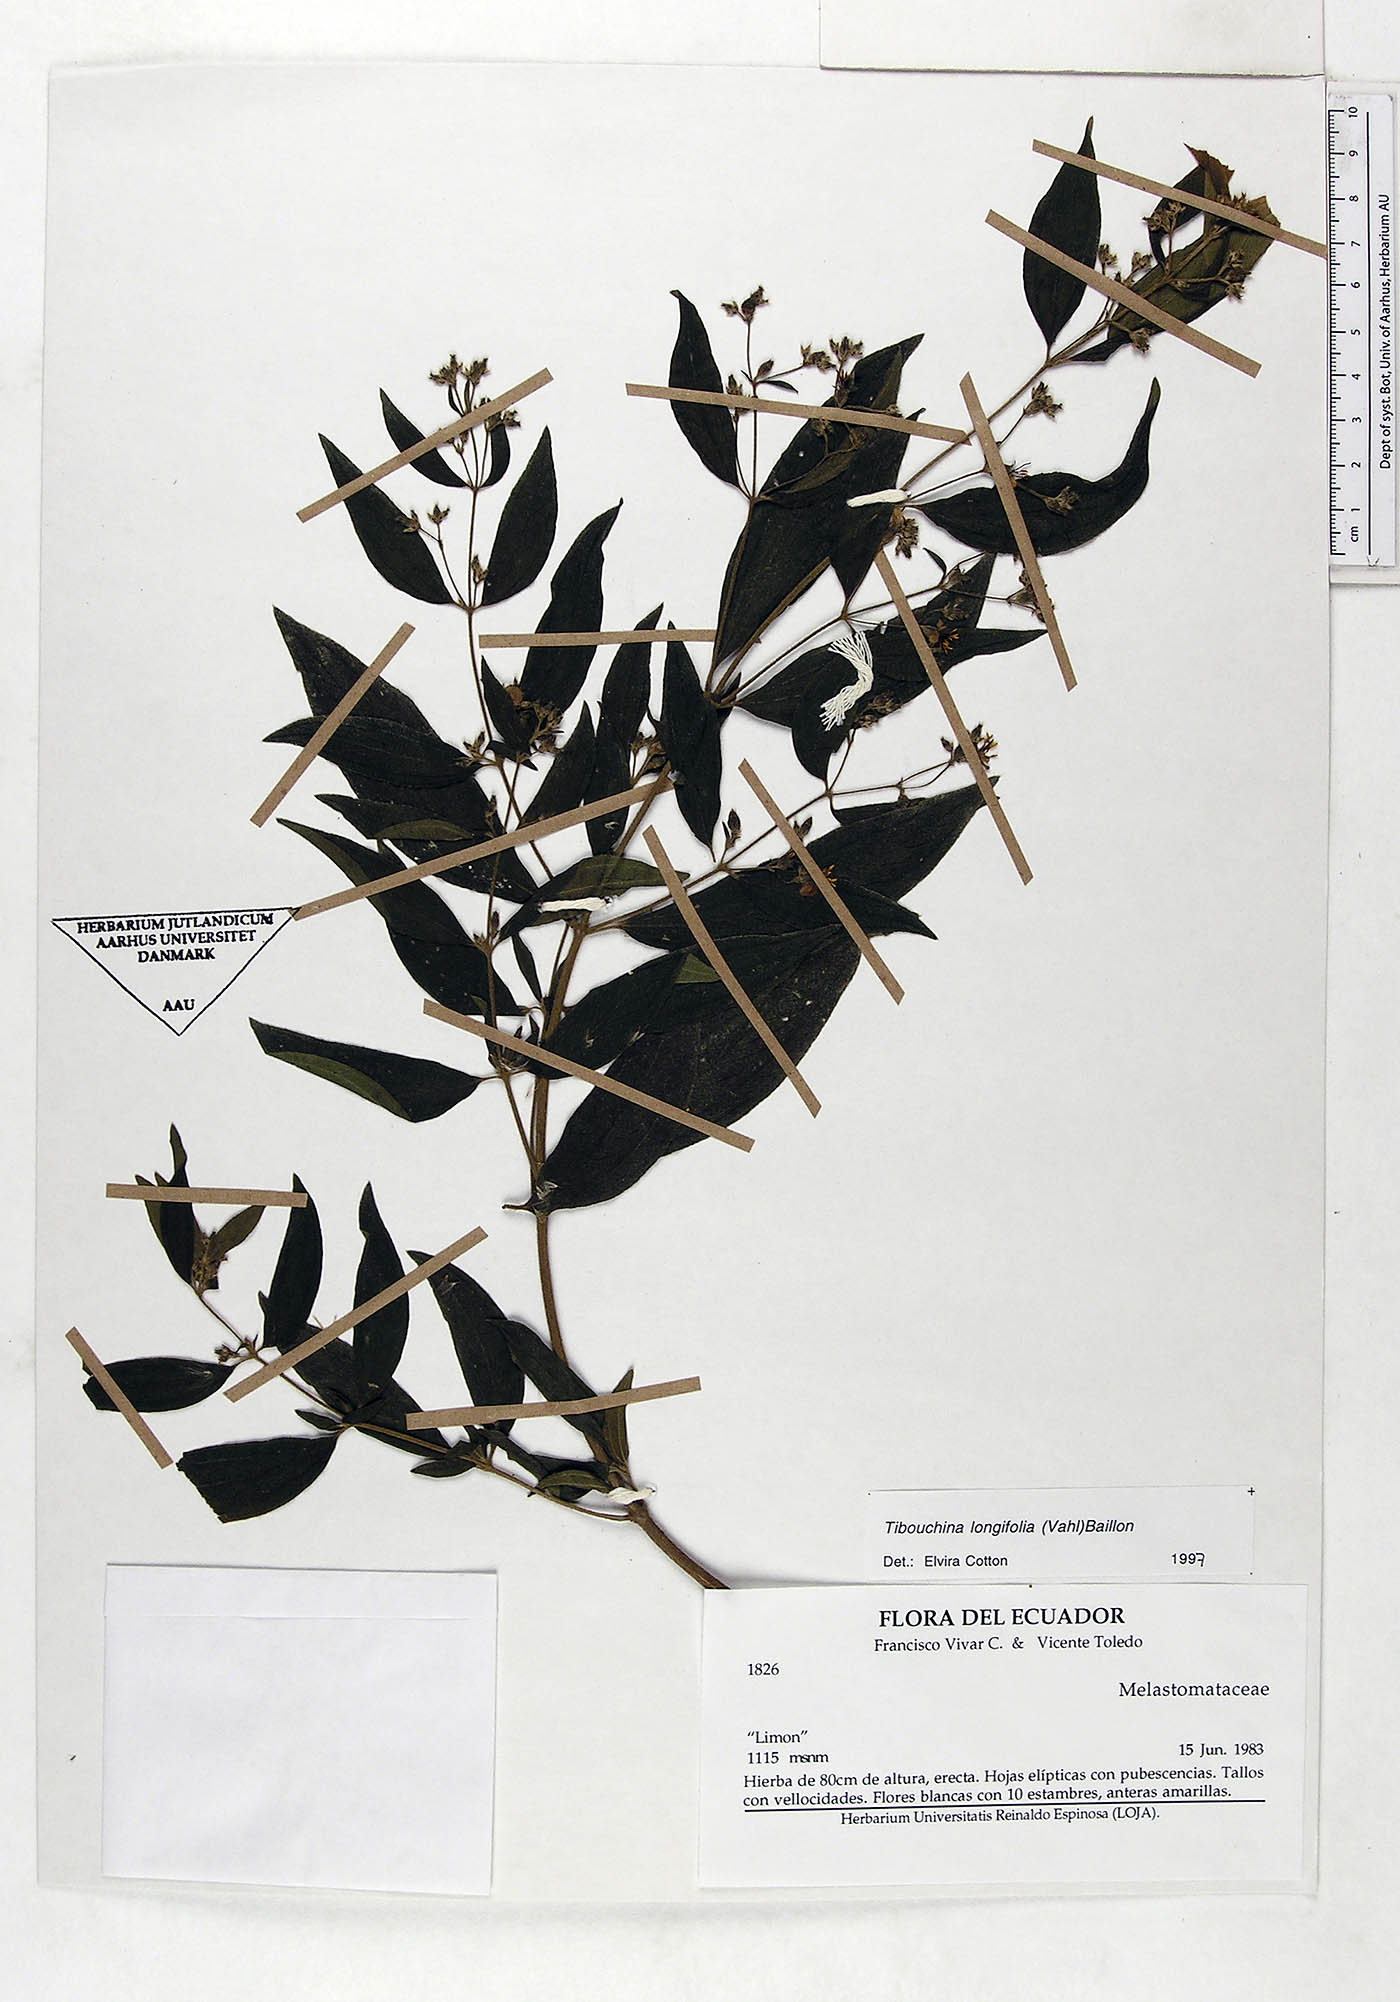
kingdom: Plantae
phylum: Tracheophyta
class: Magnoliopsida
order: Myrtales
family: Melastomataceae
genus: Chaetogastra
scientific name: Chaetogastra longifolia
